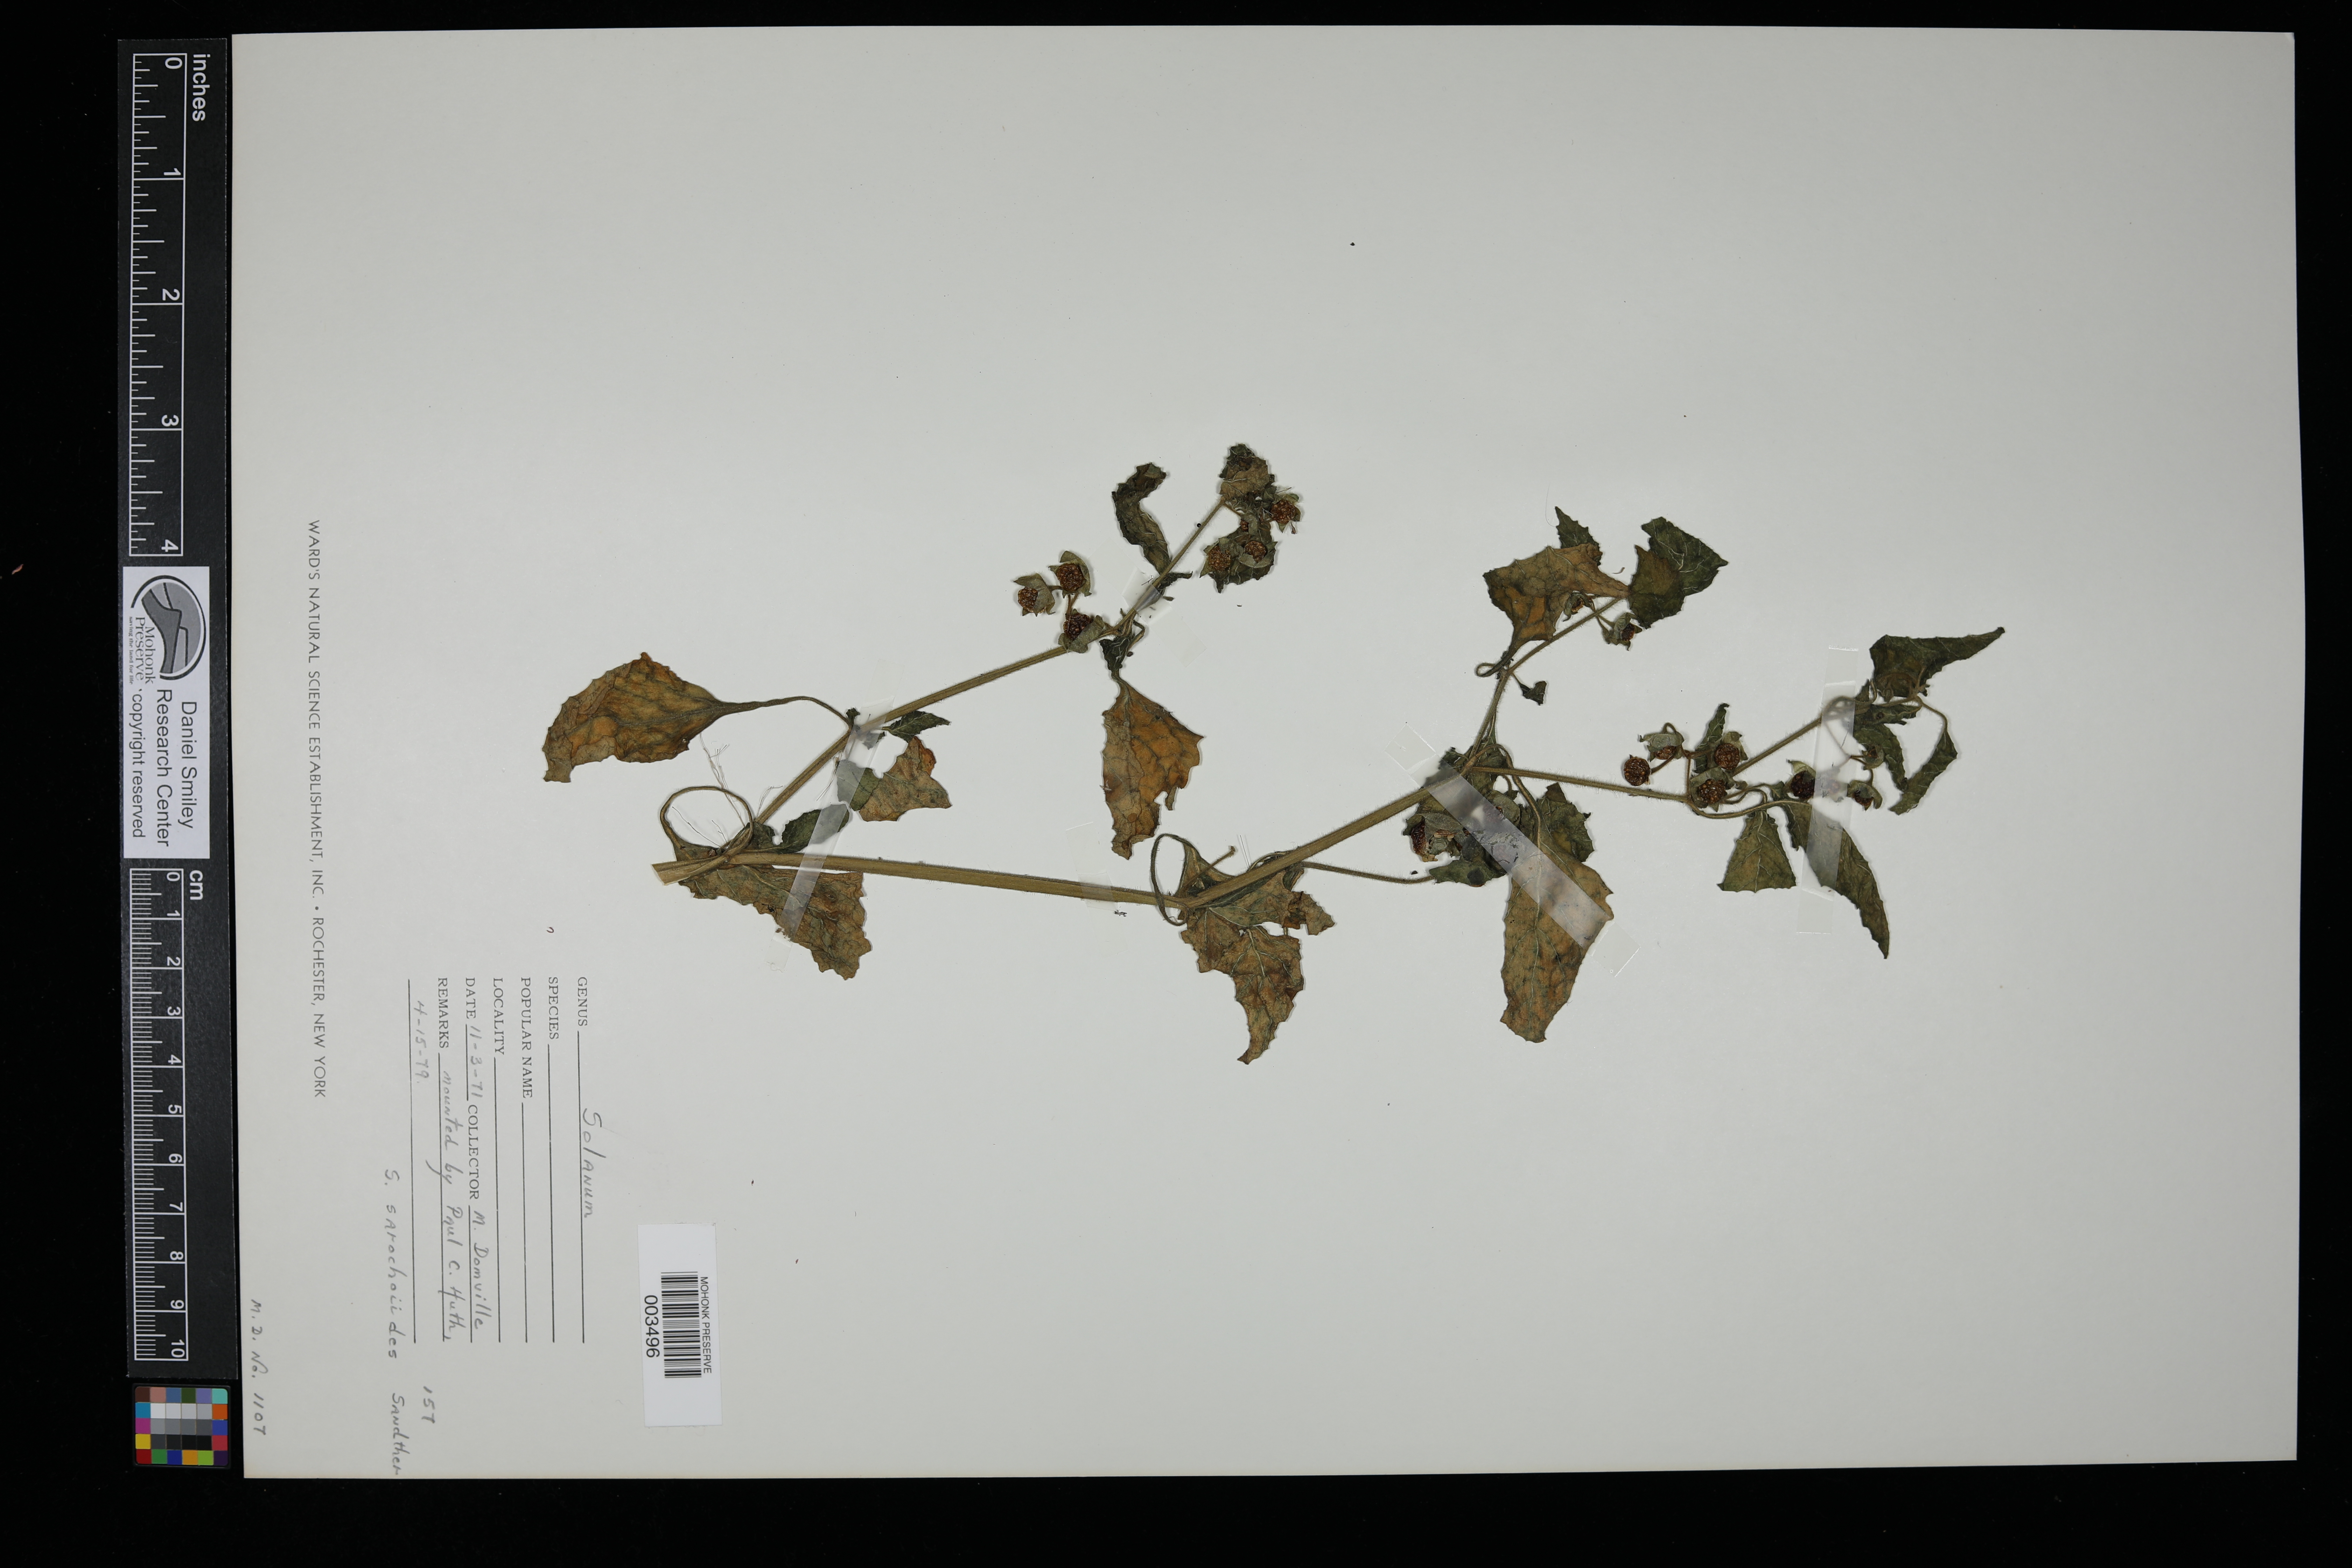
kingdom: Plantae
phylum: Tracheophyta
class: Magnoliopsida
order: Solanales
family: Solanaceae
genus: Solanum
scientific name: Solanum sarrachoides
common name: Leafy-fruited nightshade
